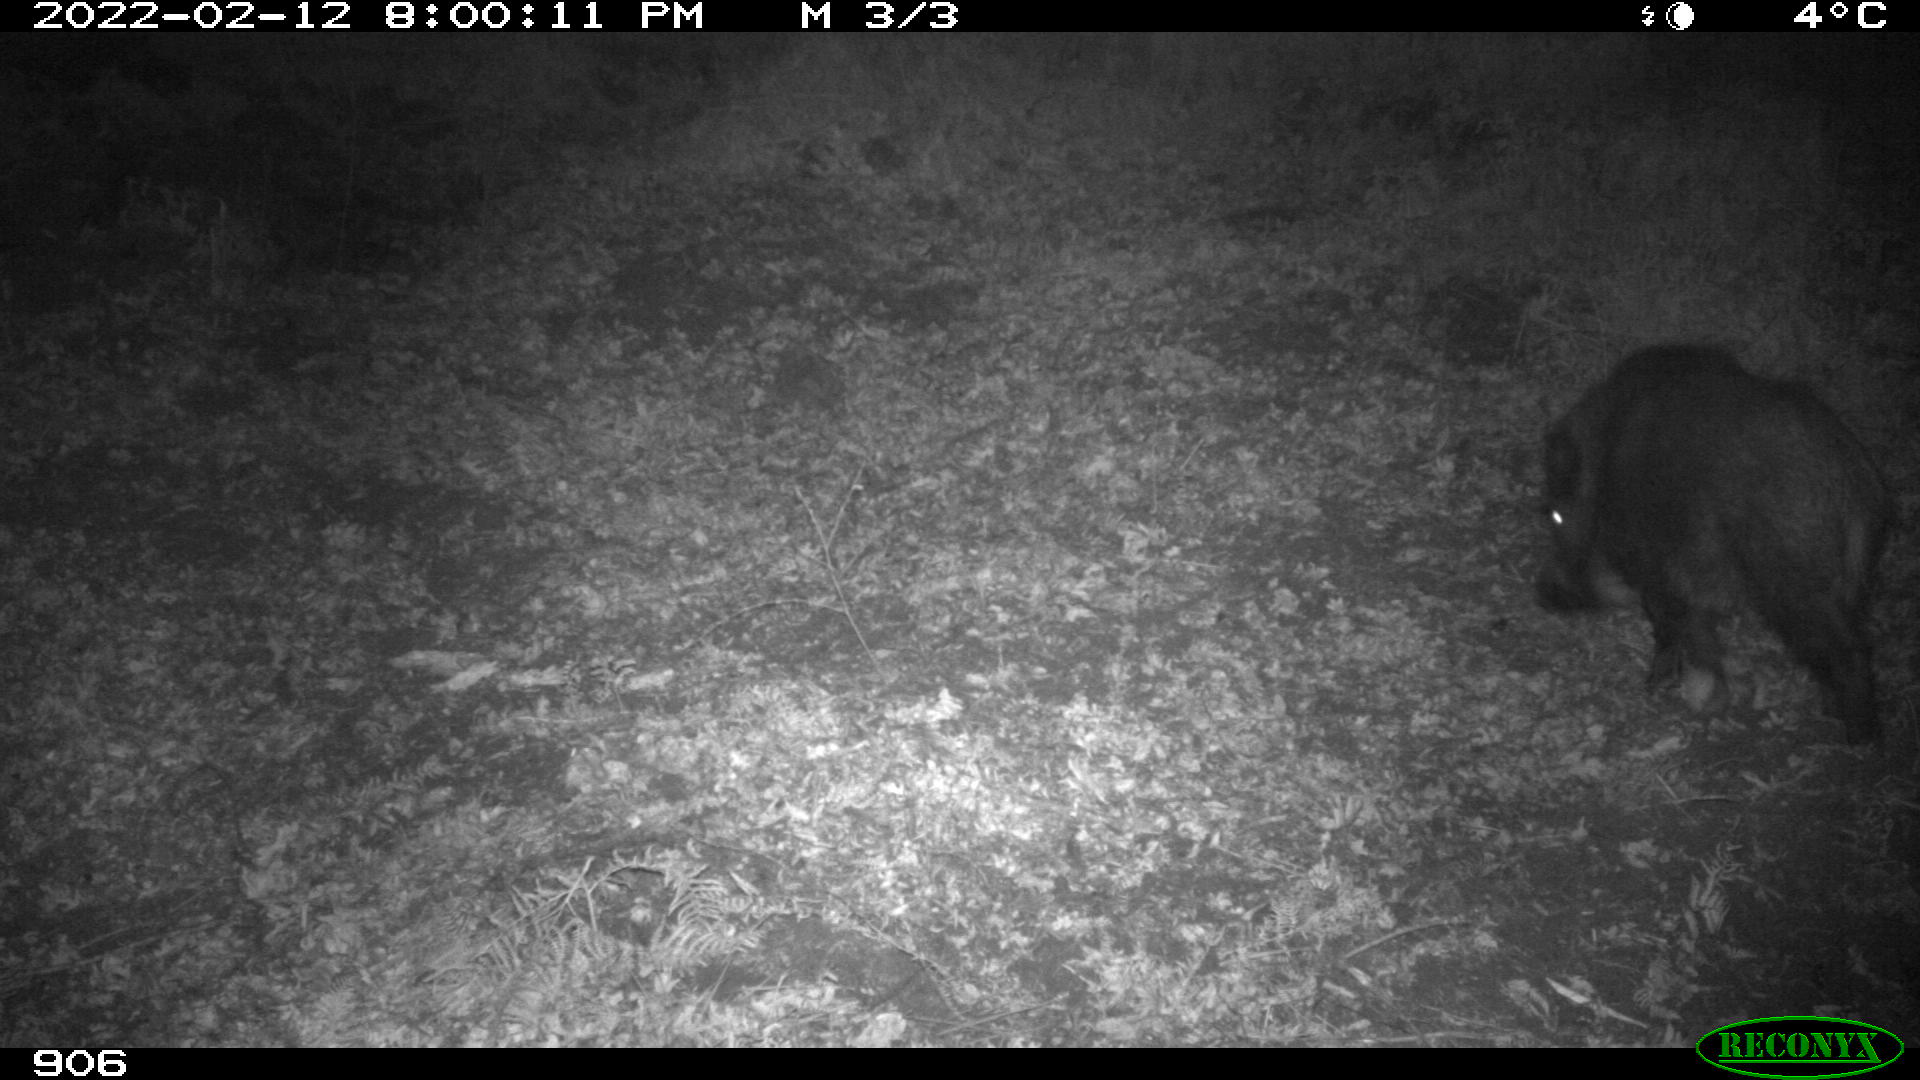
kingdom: Animalia
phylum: Chordata
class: Mammalia
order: Artiodactyla
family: Suidae
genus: Sus
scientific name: Sus scrofa
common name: Wild boar
